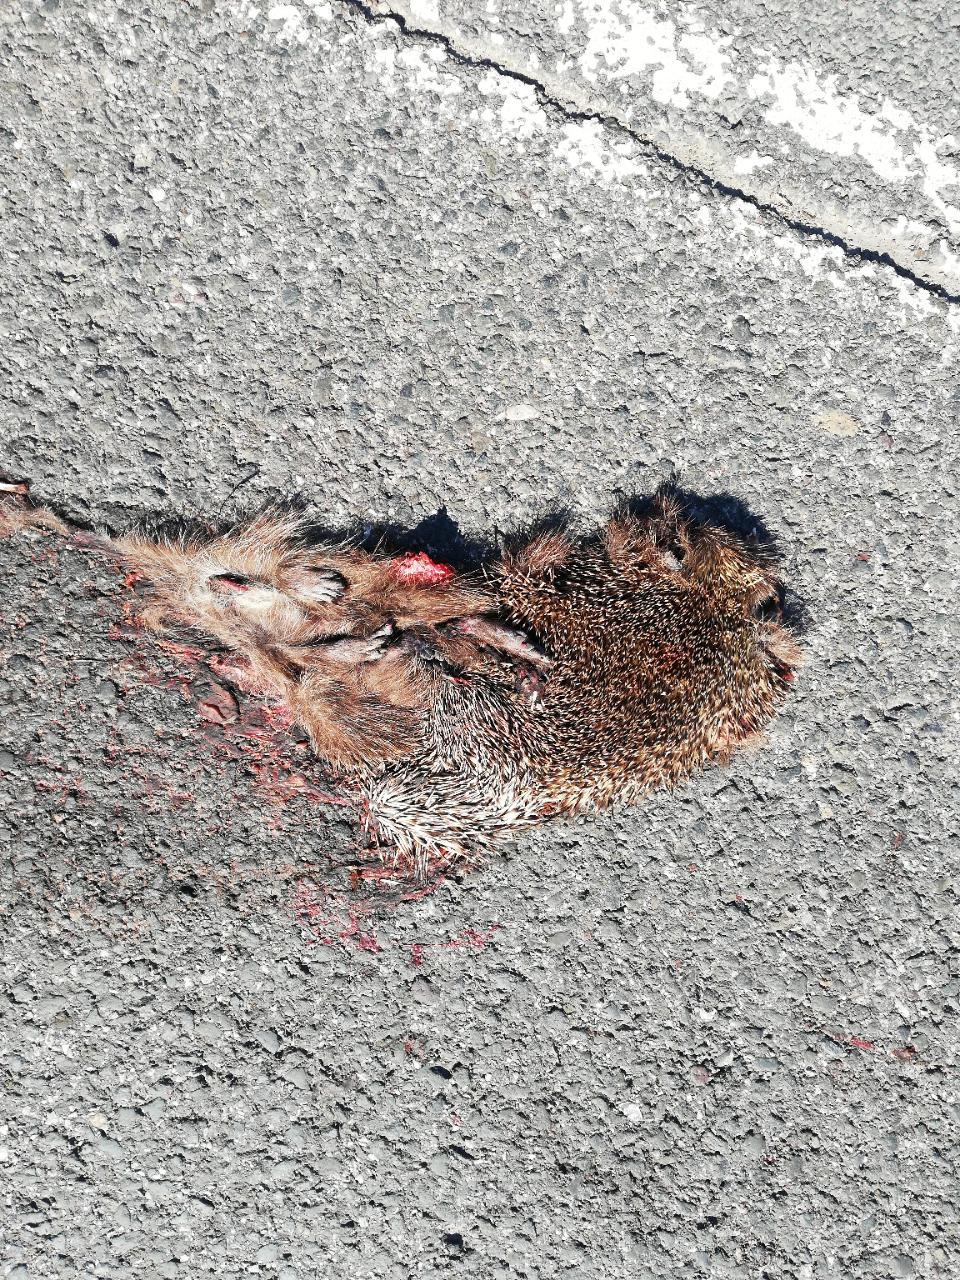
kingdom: Animalia
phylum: Chordata
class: Mammalia
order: Erinaceomorpha
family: Erinaceidae
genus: Erinaceus
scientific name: Erinaceus
